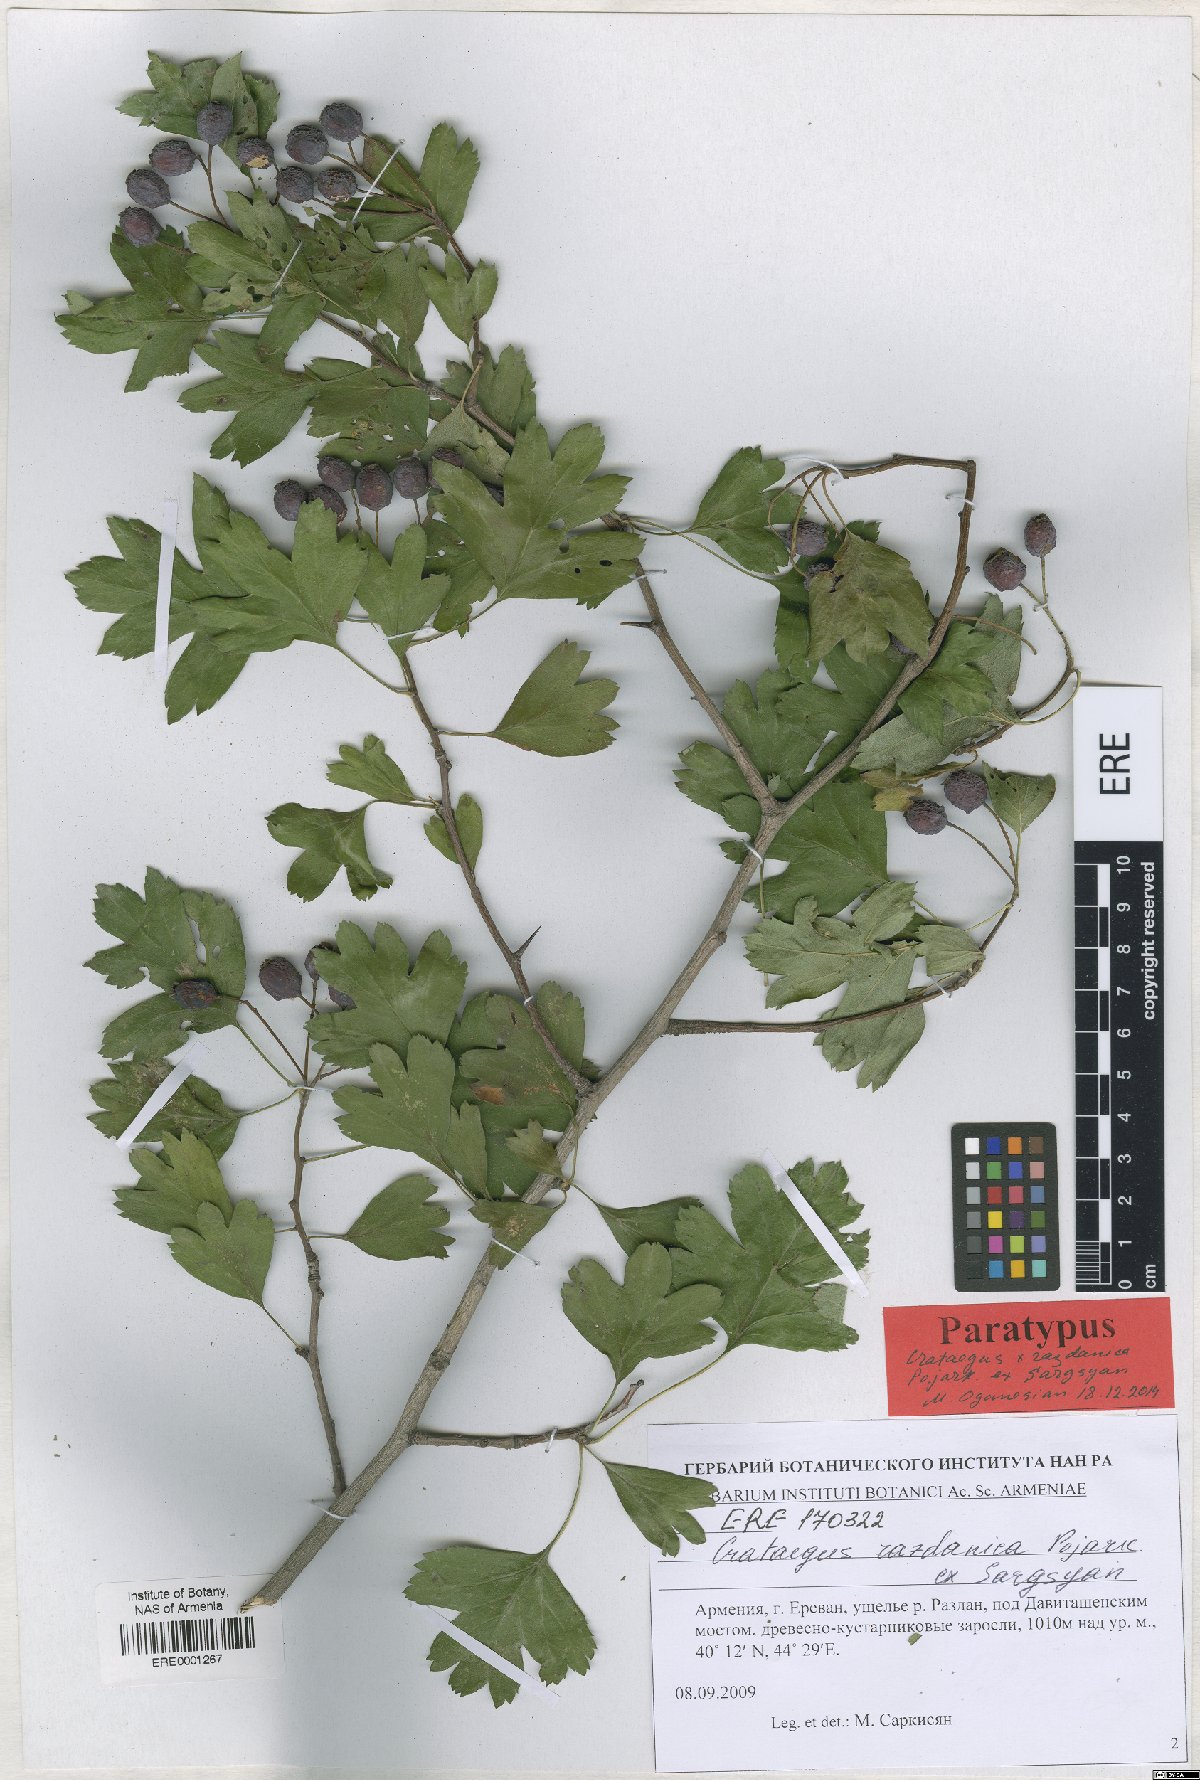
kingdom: Plantae
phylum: Tracheophyta
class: Magnoliopsida
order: Rosales
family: Rosaceae
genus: Crataegus
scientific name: Crataegus
